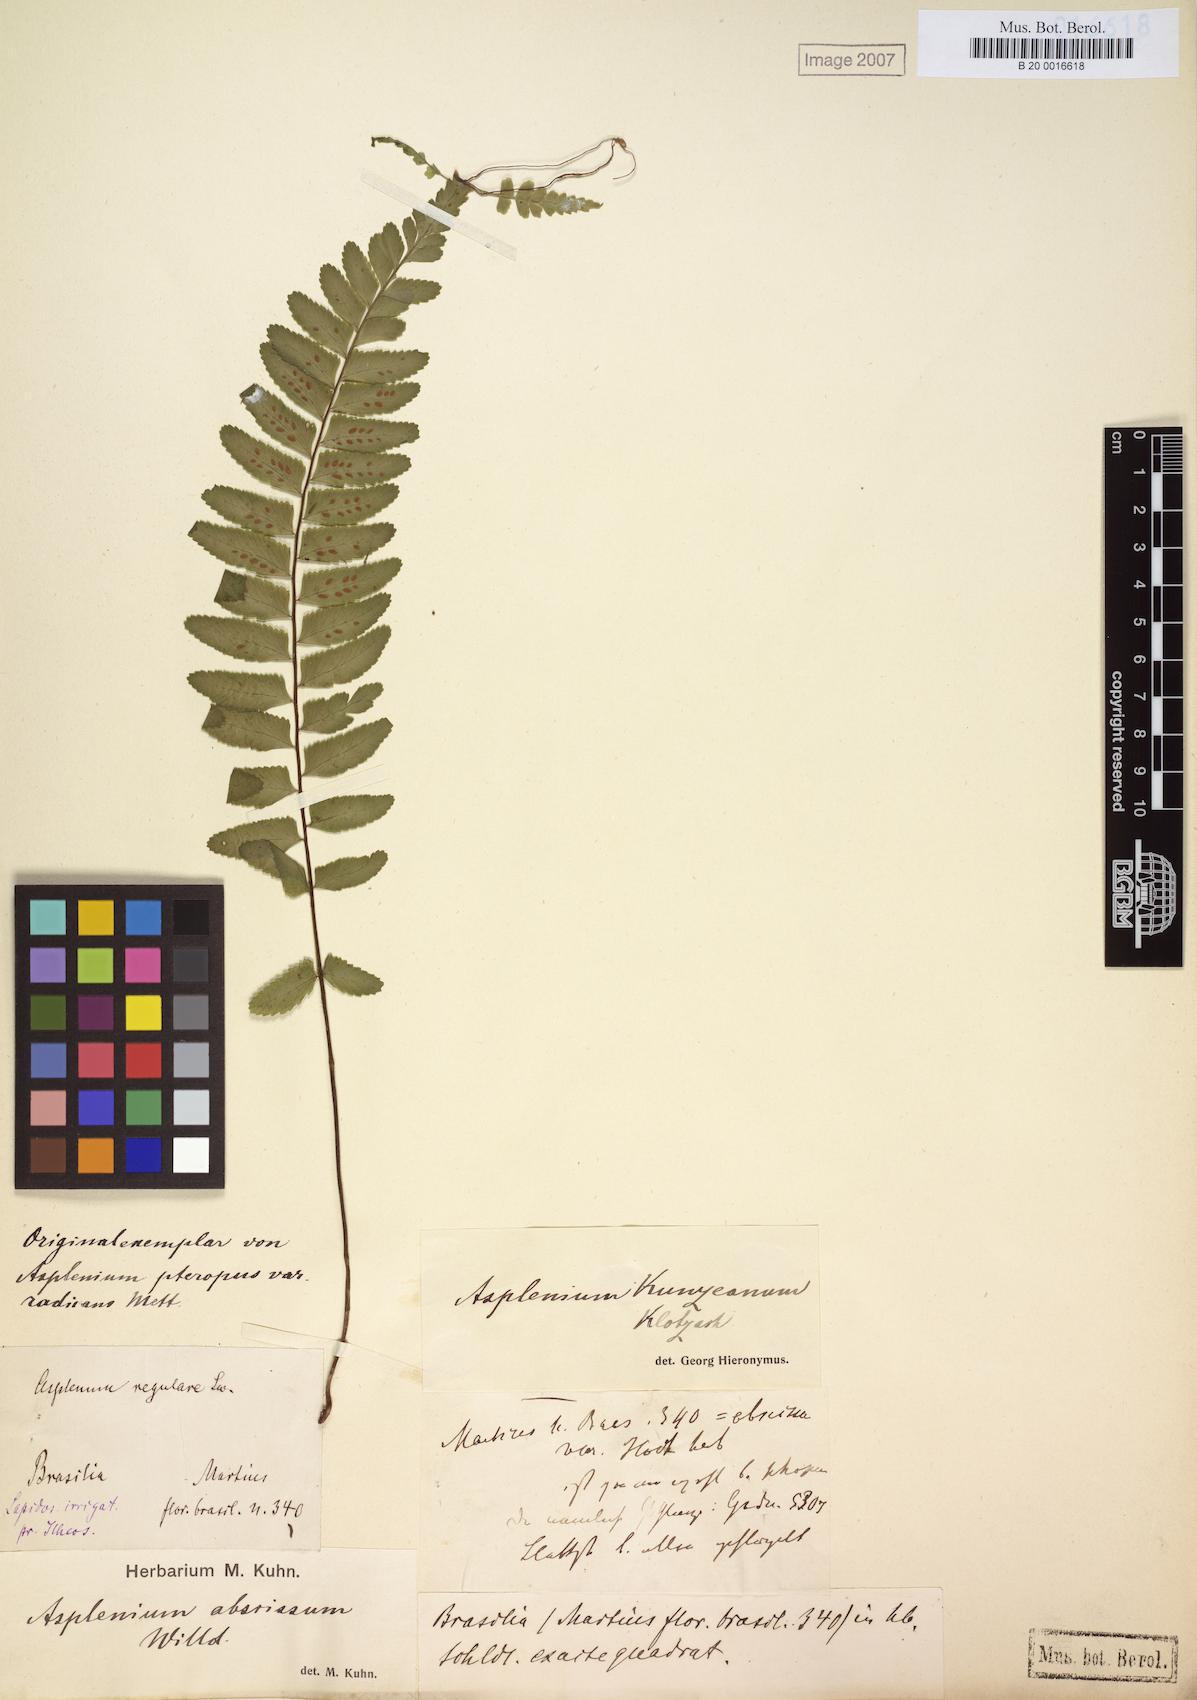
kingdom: Plantae
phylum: Tracheophyta
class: Polypodiopsida
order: Polypodiales
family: Aspleniaceae
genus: Asplenium
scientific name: Asplenium kunzeanum
